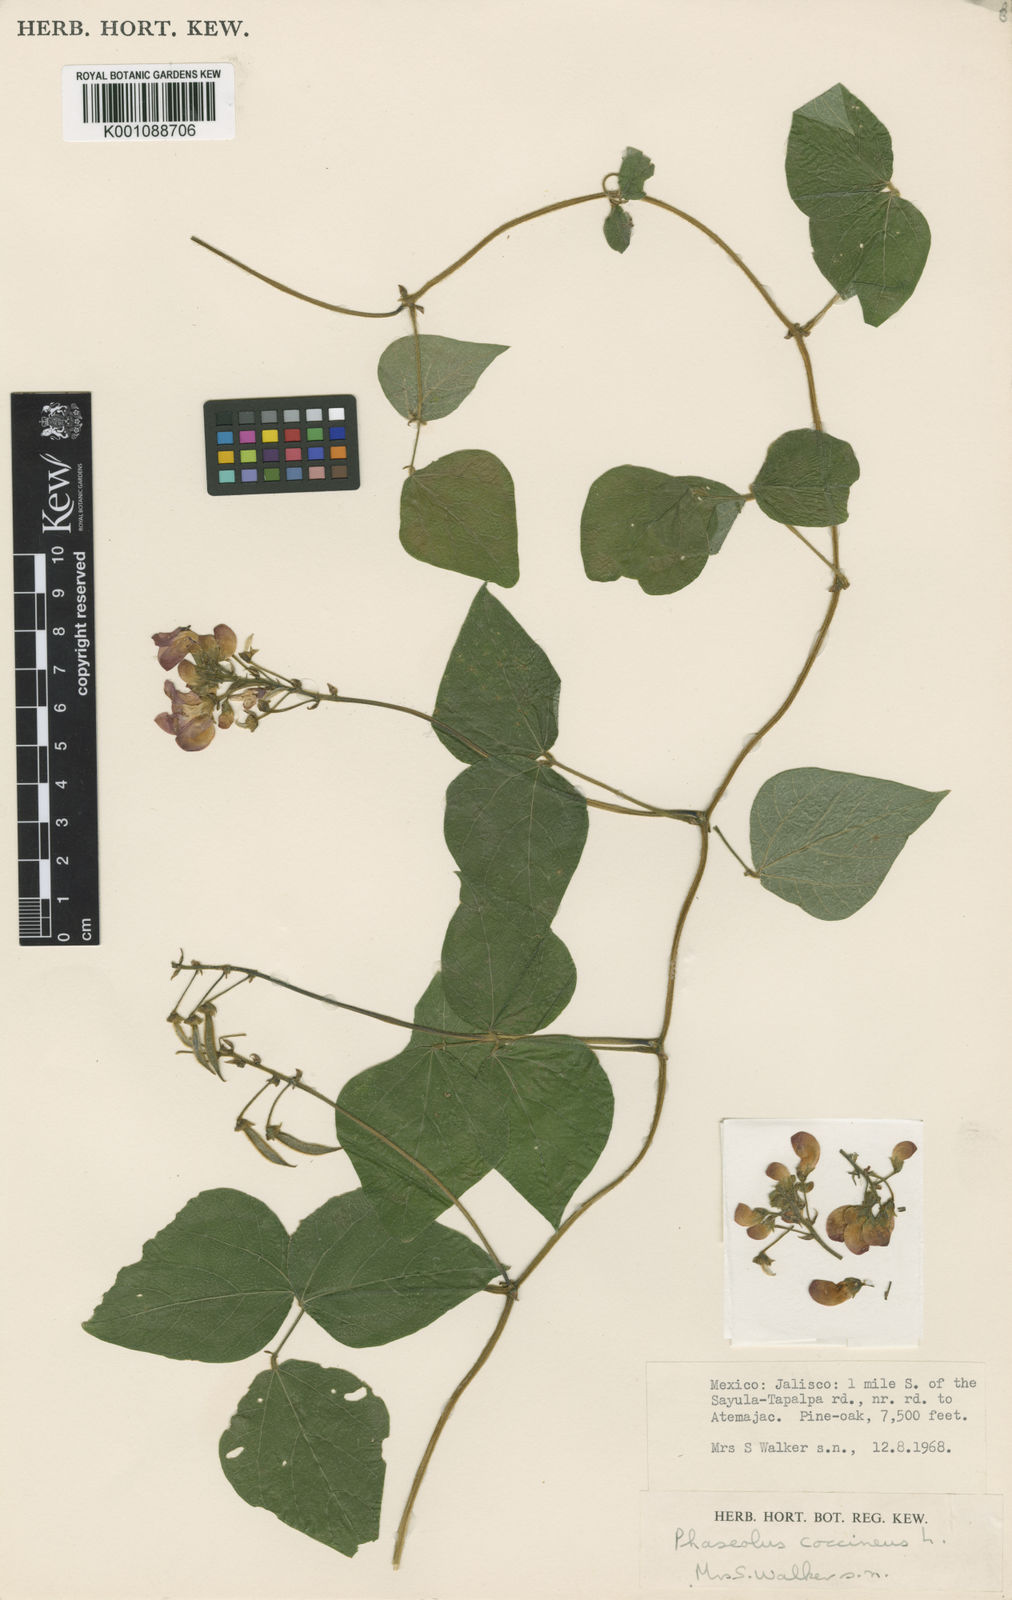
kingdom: Plantae
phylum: Tracheophyta
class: Magnoliopsida
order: Fabales
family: Fabaceae
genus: Phaseolus
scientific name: Phaseolus coccineus
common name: Runner bean
